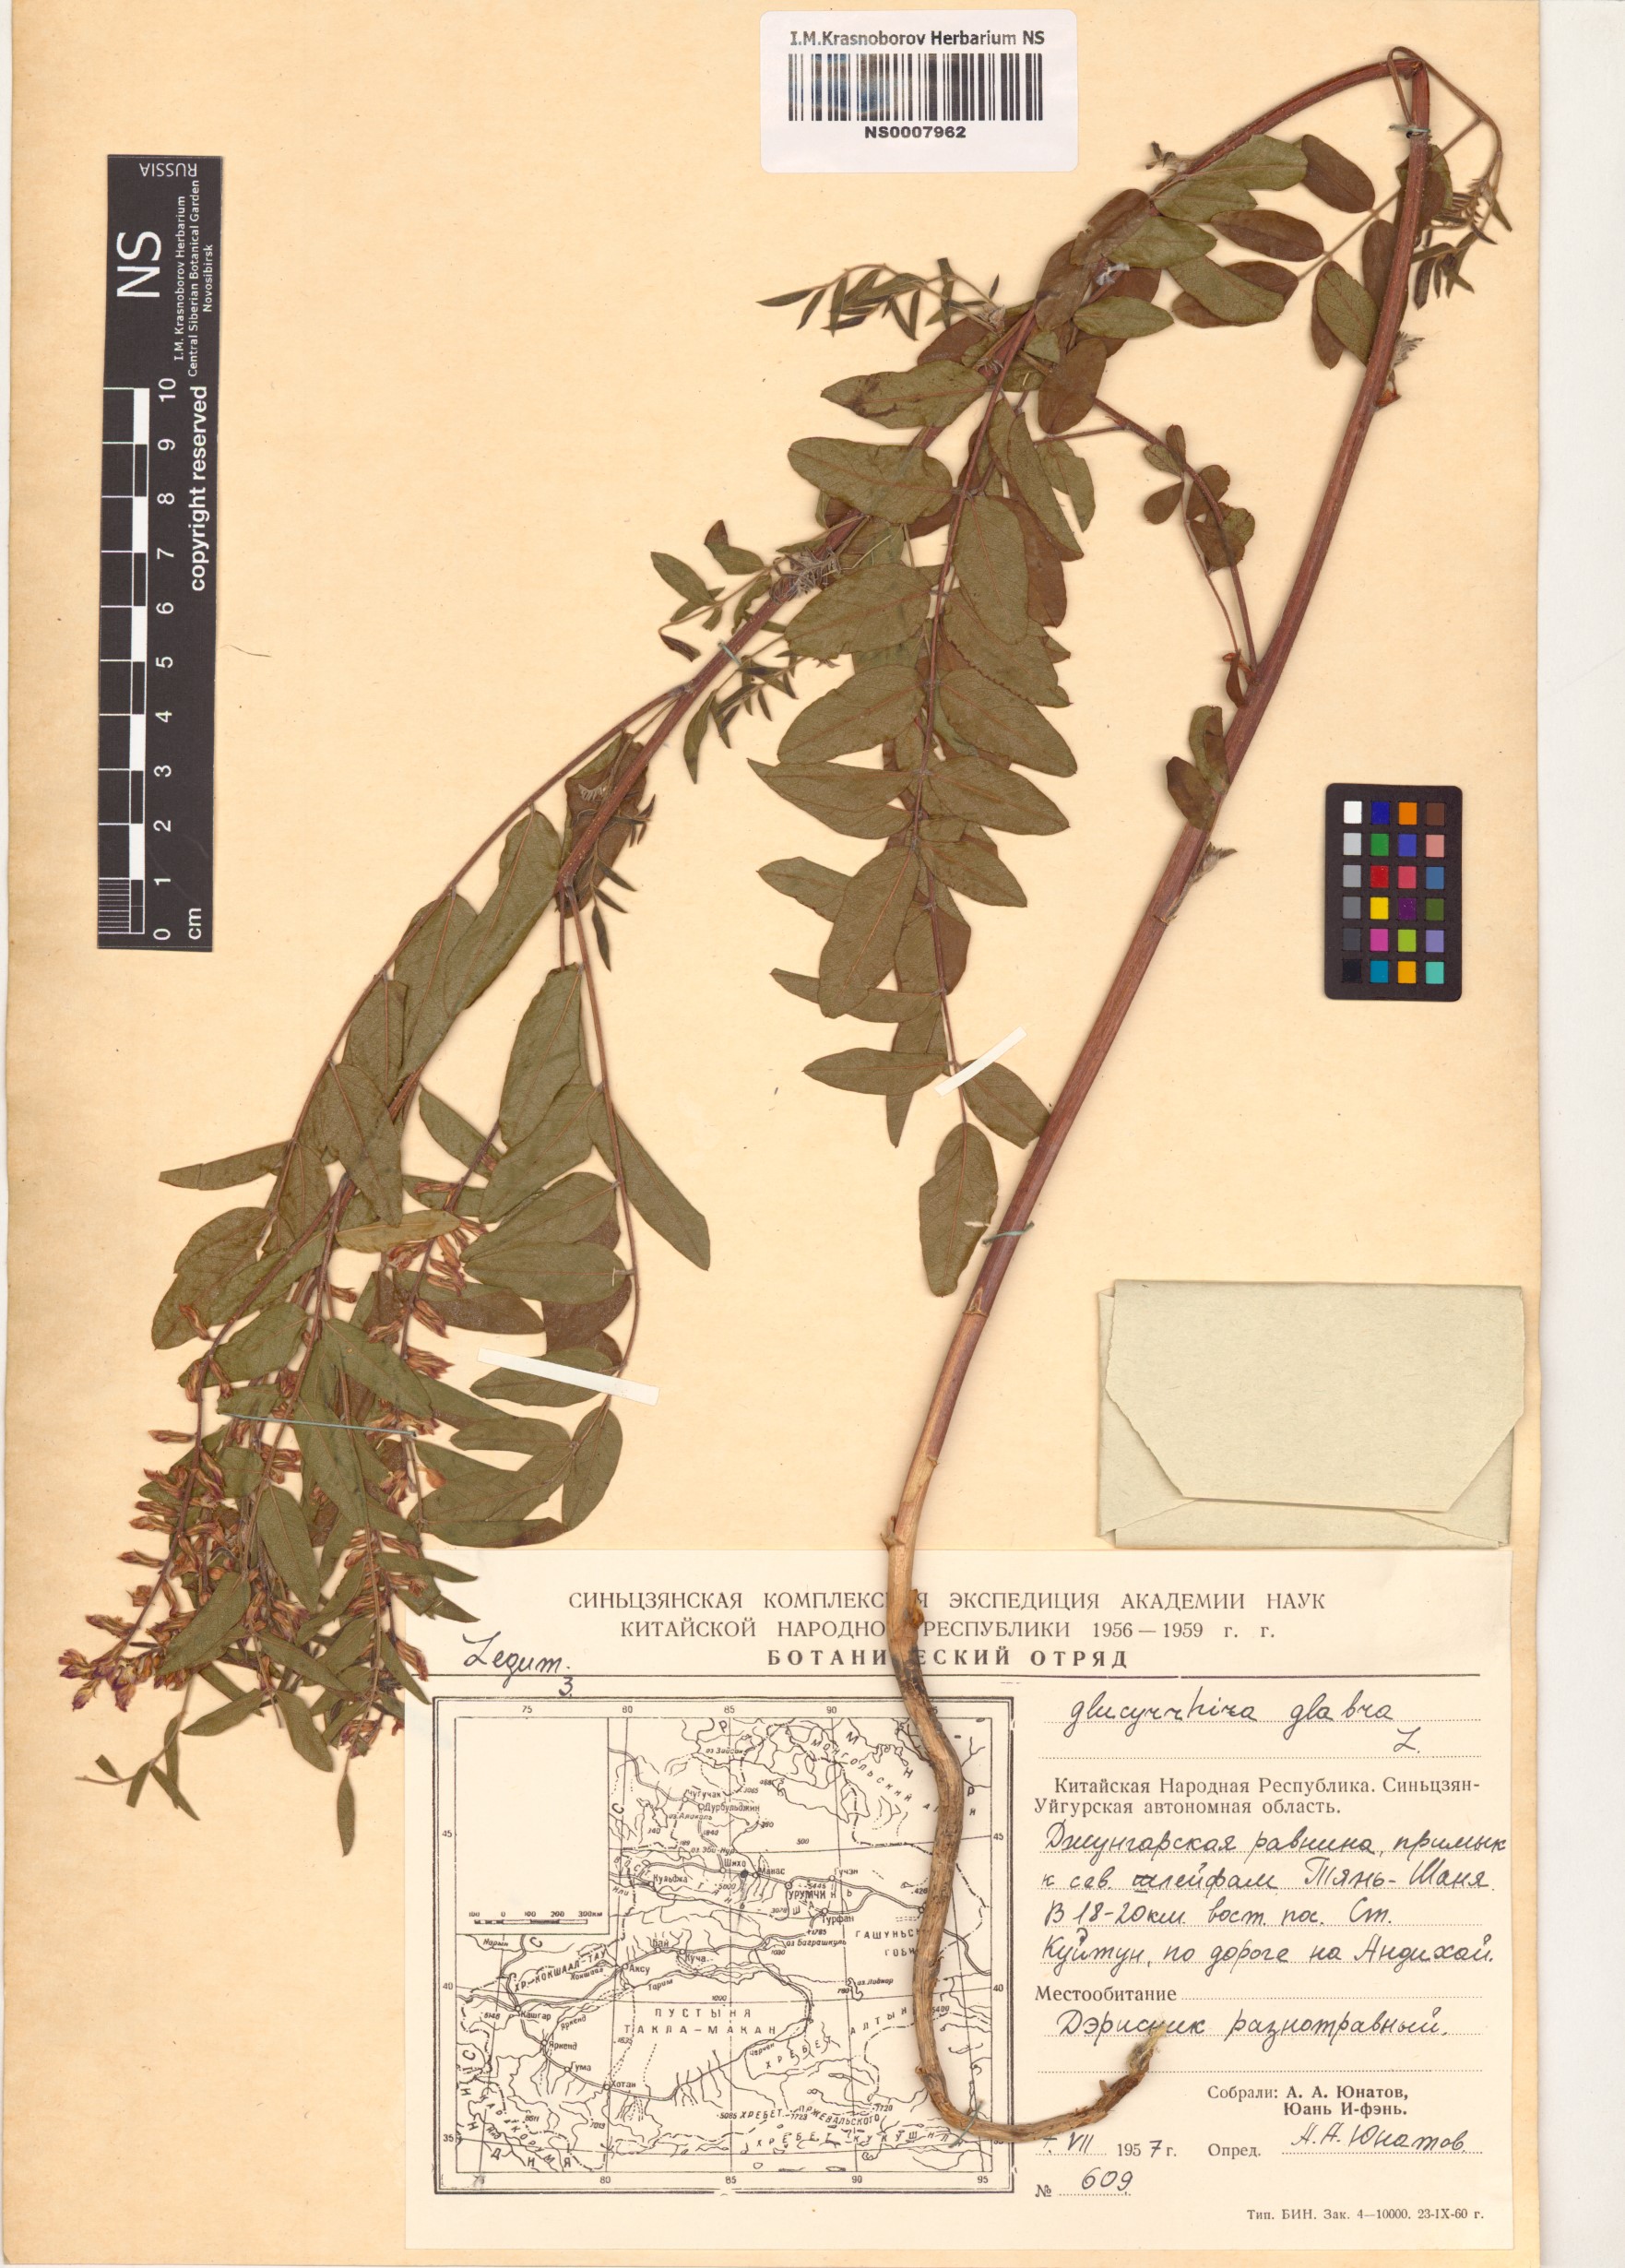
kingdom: Plantae
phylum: Tracheophyta
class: Magnoliopsida
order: Fabales
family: Fabaceae
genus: Glycyrrhiza
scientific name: Glycyrrhiza glabra
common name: Liquorice
